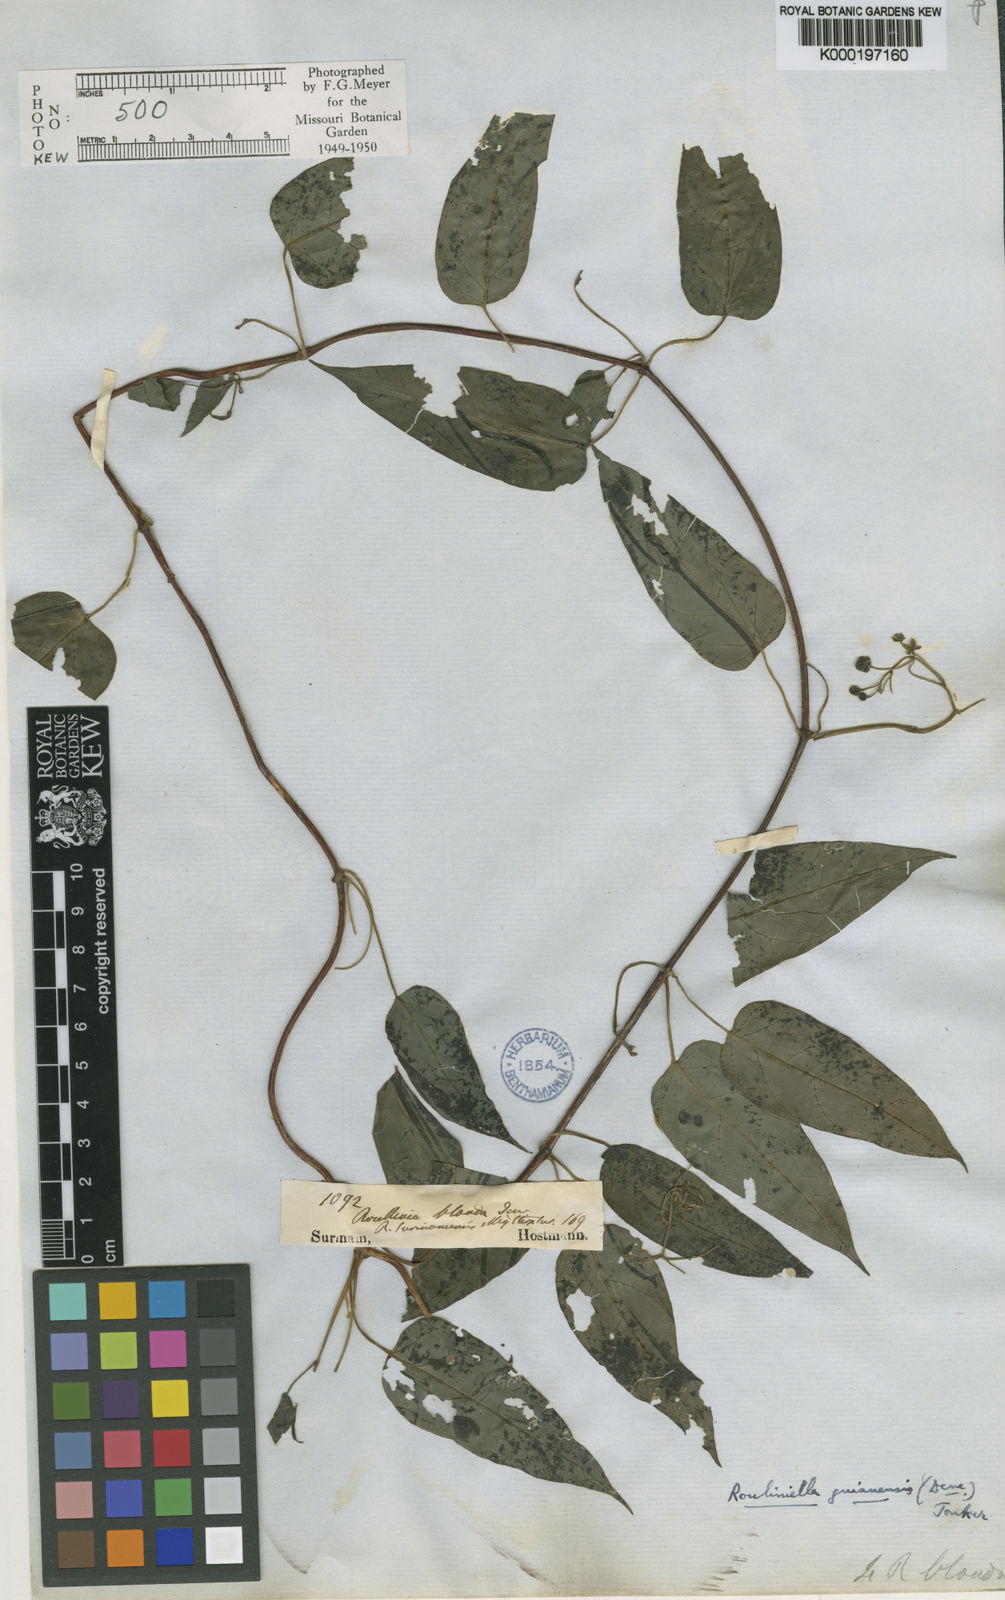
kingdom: Plantae
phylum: Tracheophyta
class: Magnoliopsida
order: Gentianales
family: Apocynaceae
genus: Cynanchum
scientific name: Cynanchum blandum
